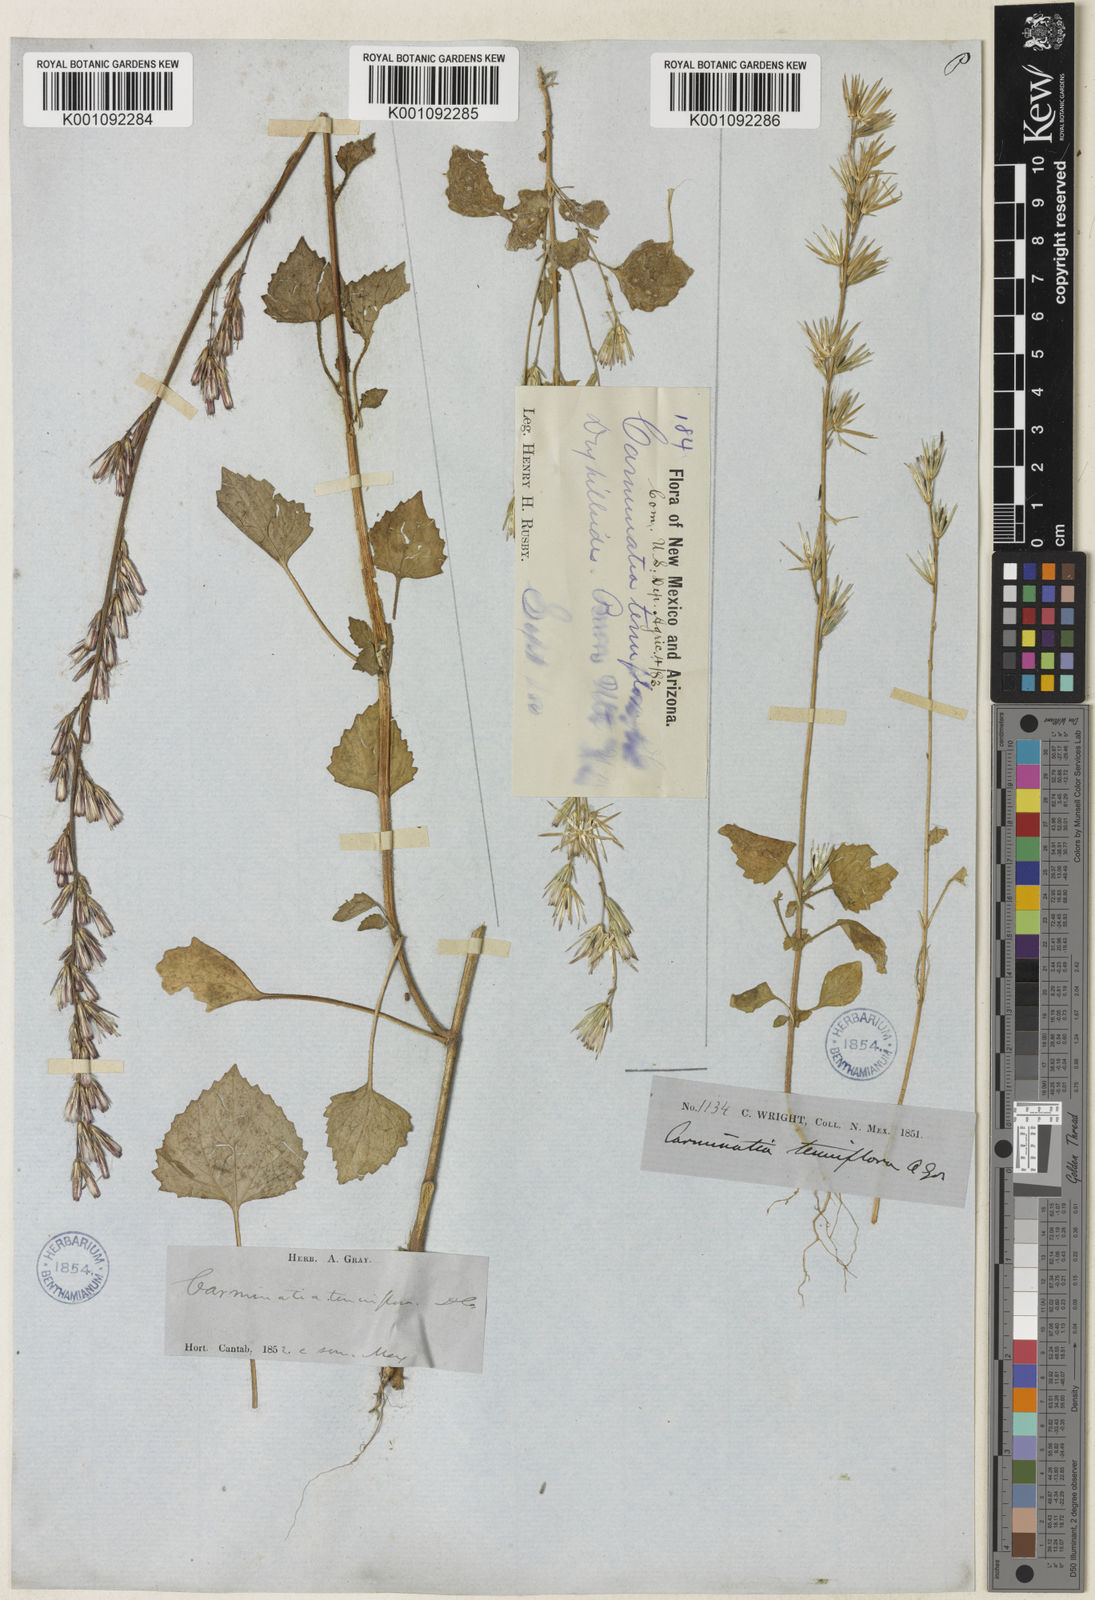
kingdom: Plantae
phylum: Tracheophyta
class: Magnoliopsida
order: Asterales
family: Asteraceae
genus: Carminatia
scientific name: Carminatia tenuiflora
